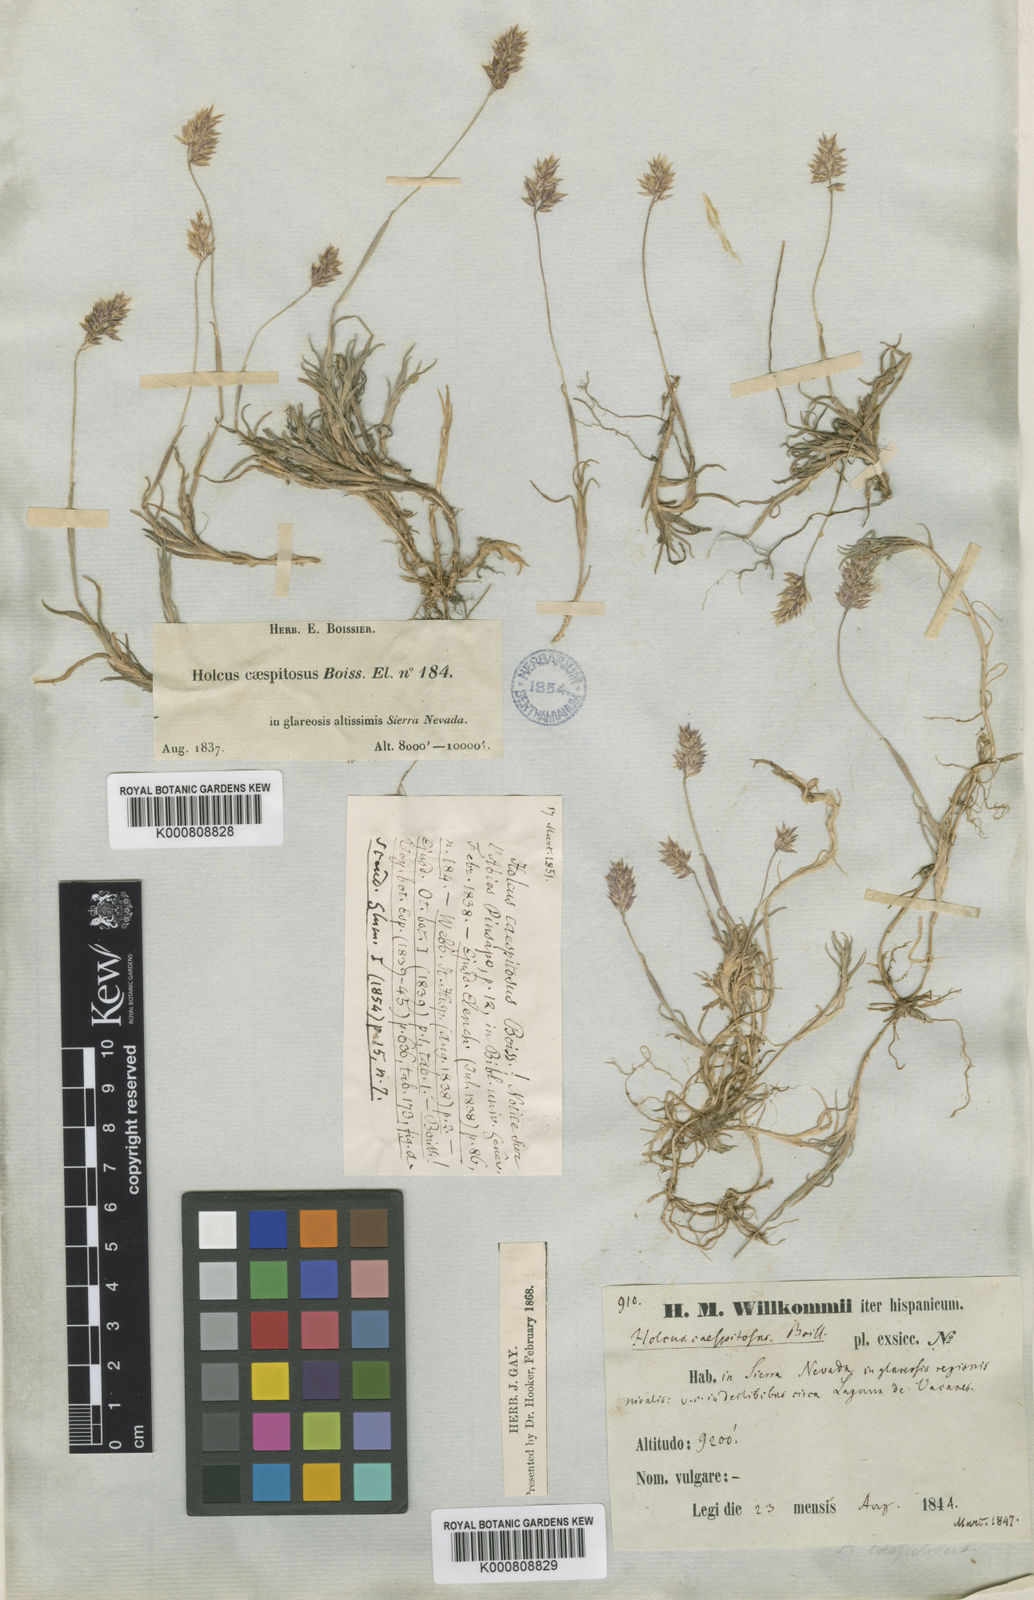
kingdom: Plantae
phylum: Tracheophyta
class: Liliopsida
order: Poales
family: Poaceae
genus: Holcus
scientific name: Holcus caespitosus
